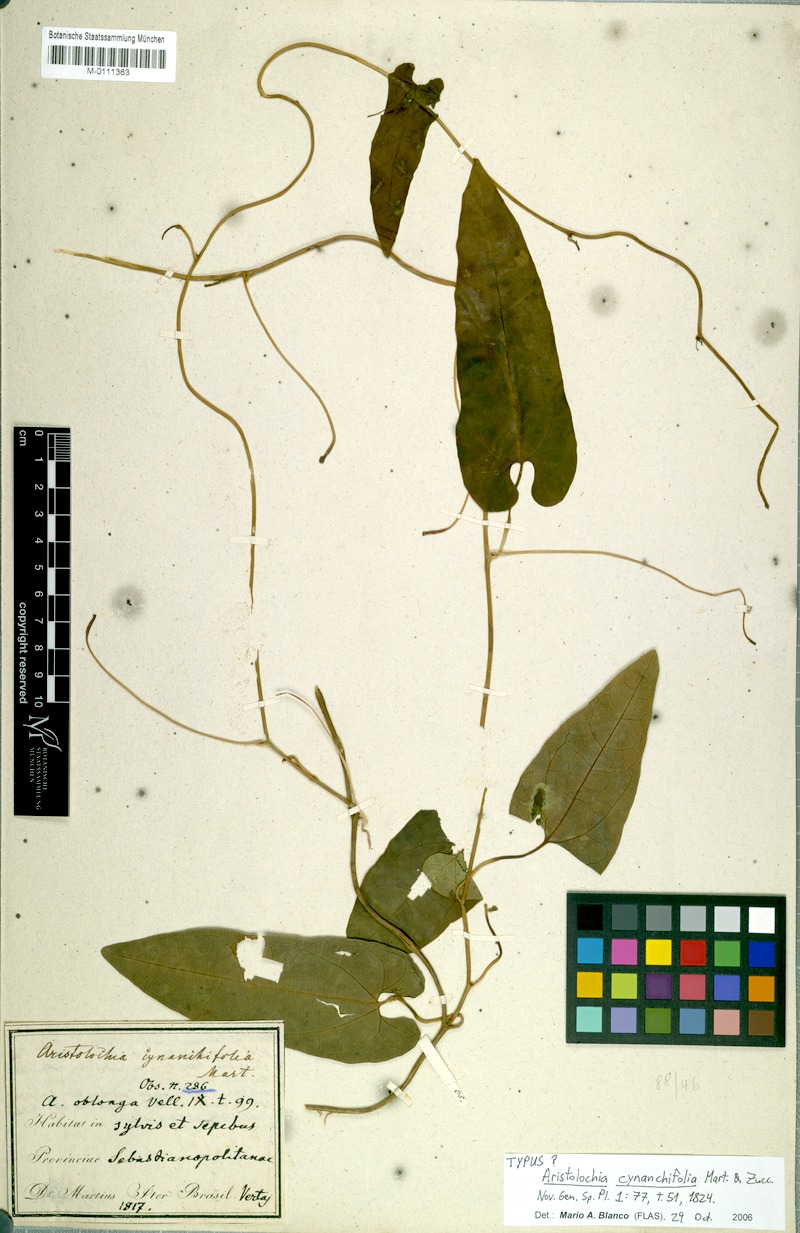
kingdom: Plantae
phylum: Tracheophyta
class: Magnoliopsida
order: Piperales
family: Aristolochiaceae
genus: Aristolochia
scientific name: Aristolochia cynanchifolia
